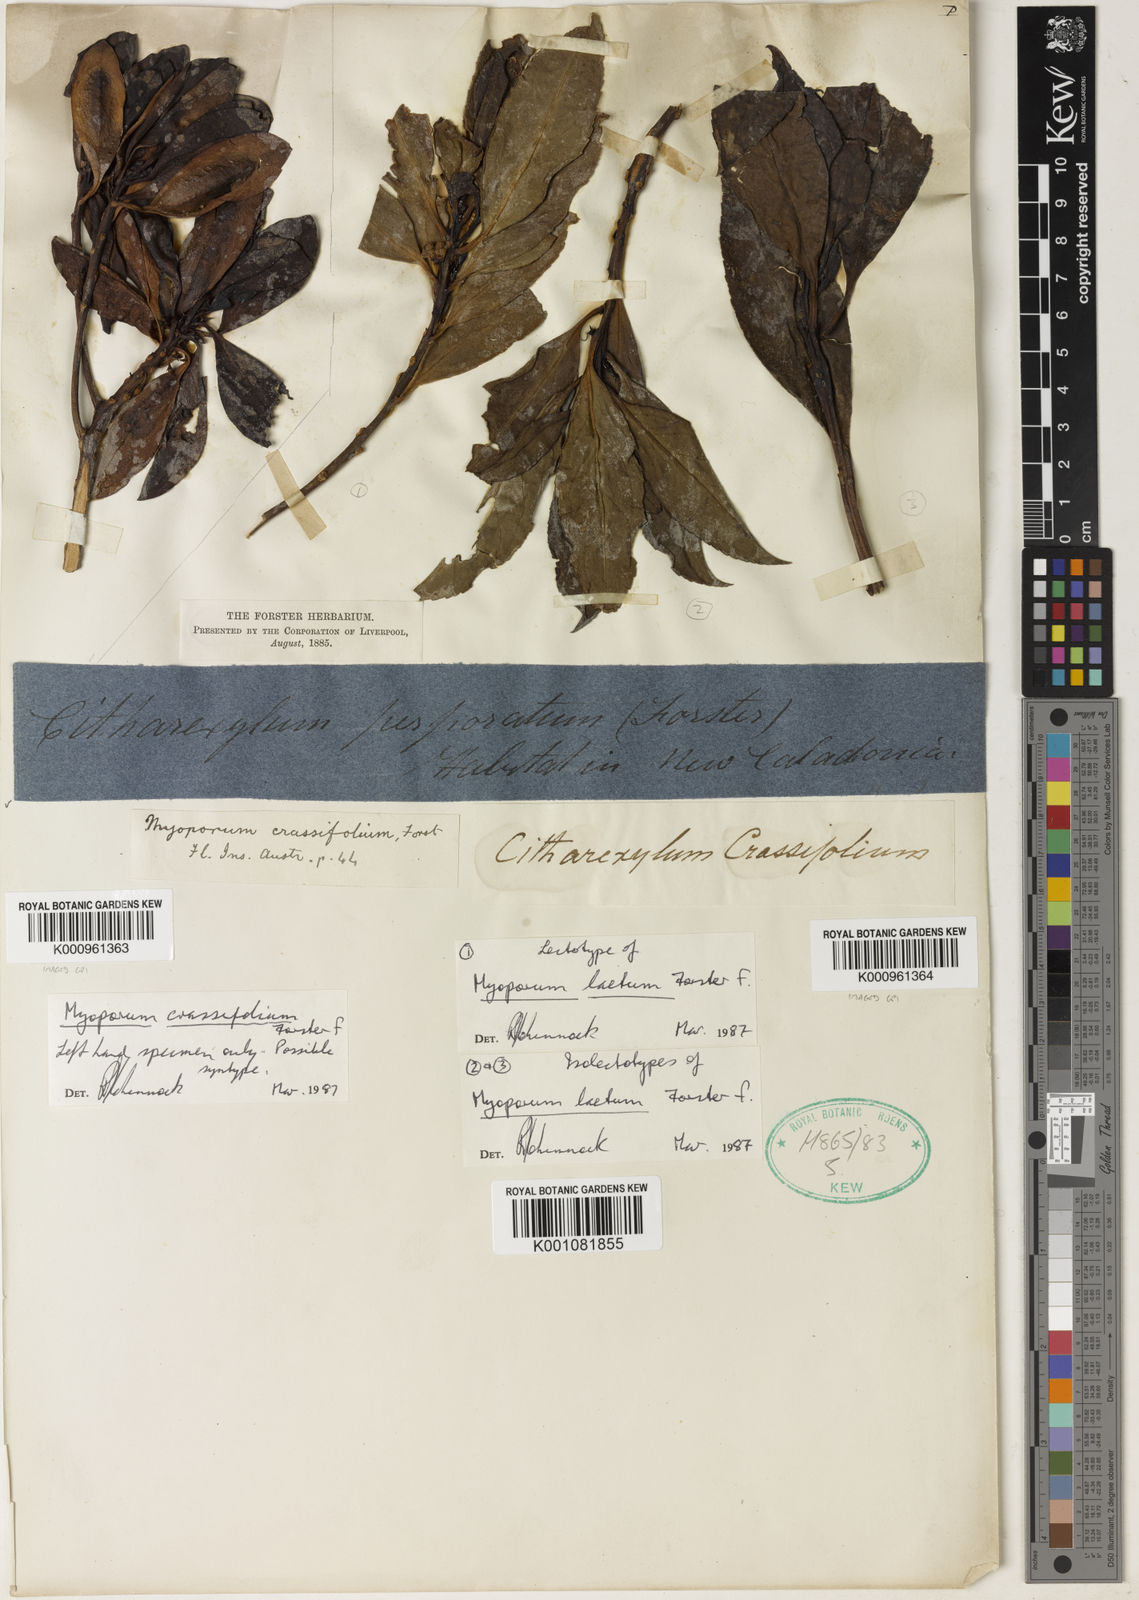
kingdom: Plantae
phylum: Tracheophyta
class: Magnoliopsida
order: Lamiales
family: Scrophulariaceae
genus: Myoporum
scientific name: Myoporum laetum
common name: Ngaio tree
